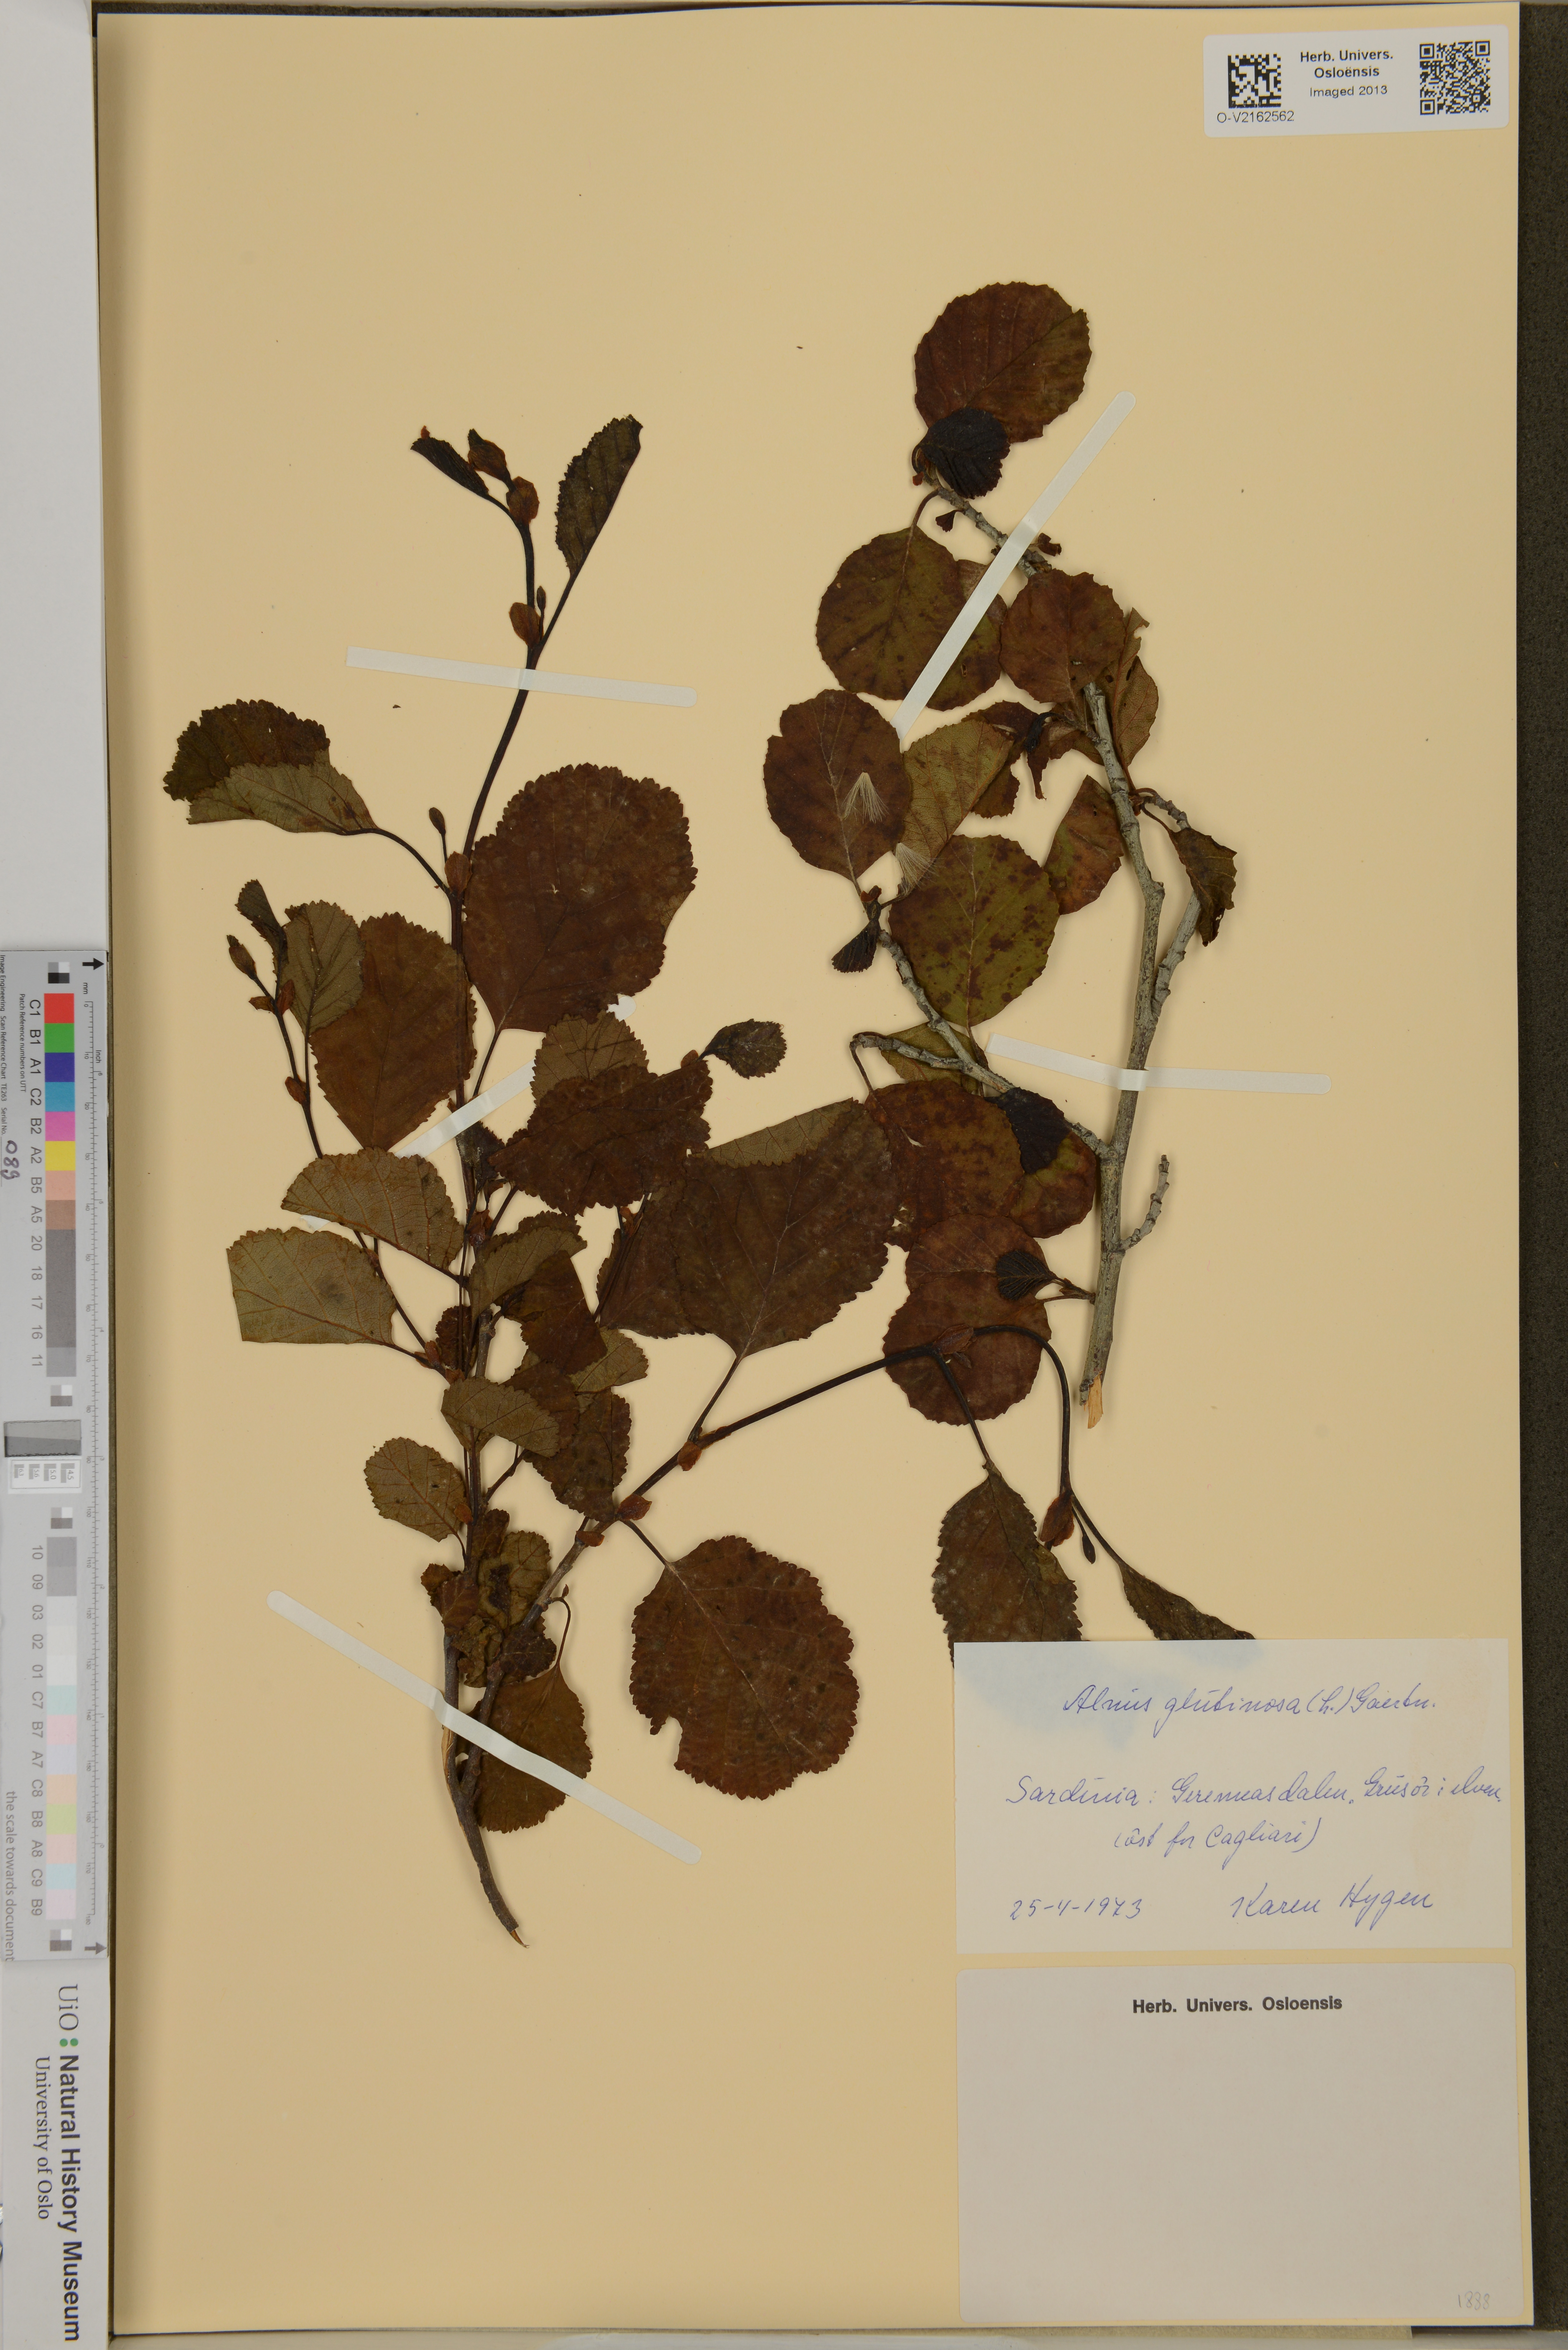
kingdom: Plantae
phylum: Tracheophyta
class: Magnoliopsida
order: Fagales
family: Betulaceae
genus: Alnus
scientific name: Alnus glutinosa
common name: Black alder
